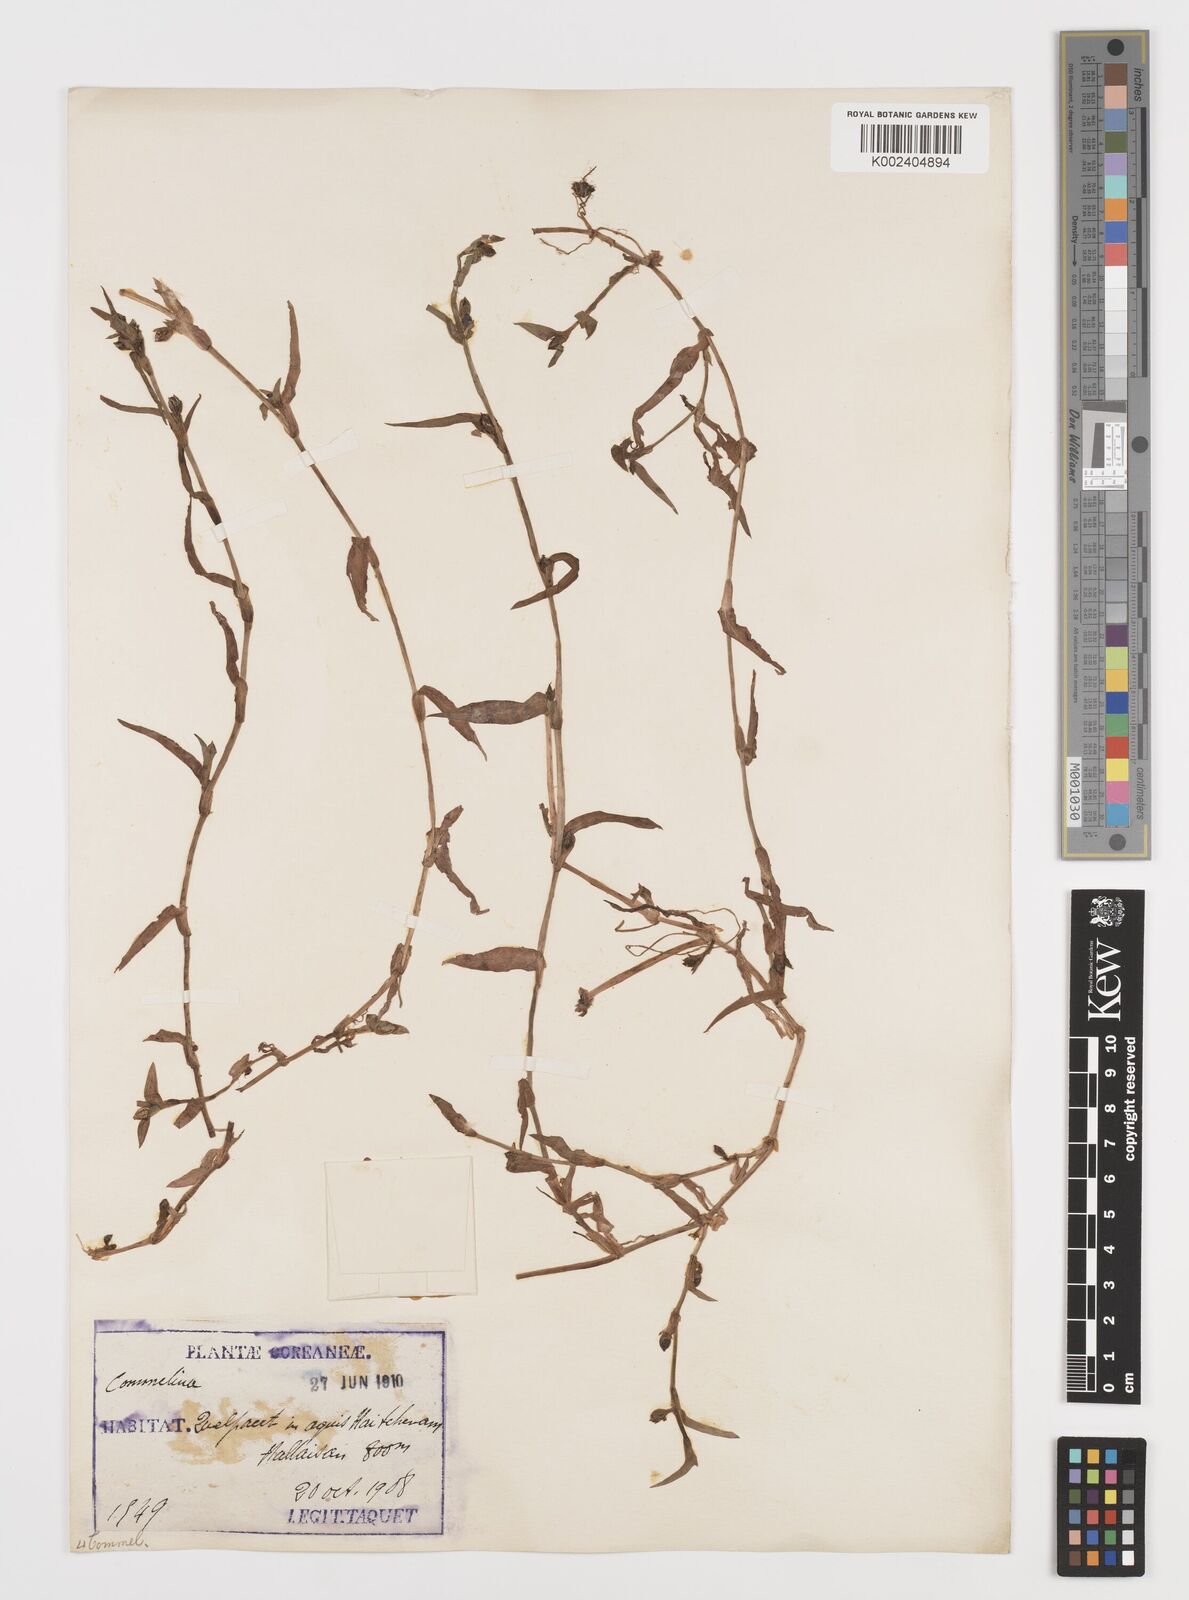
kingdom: Plantae
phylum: Tracheophyta
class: Liliopsida
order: Commelinales
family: Commelinaceae
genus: Commelina
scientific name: Commelina
